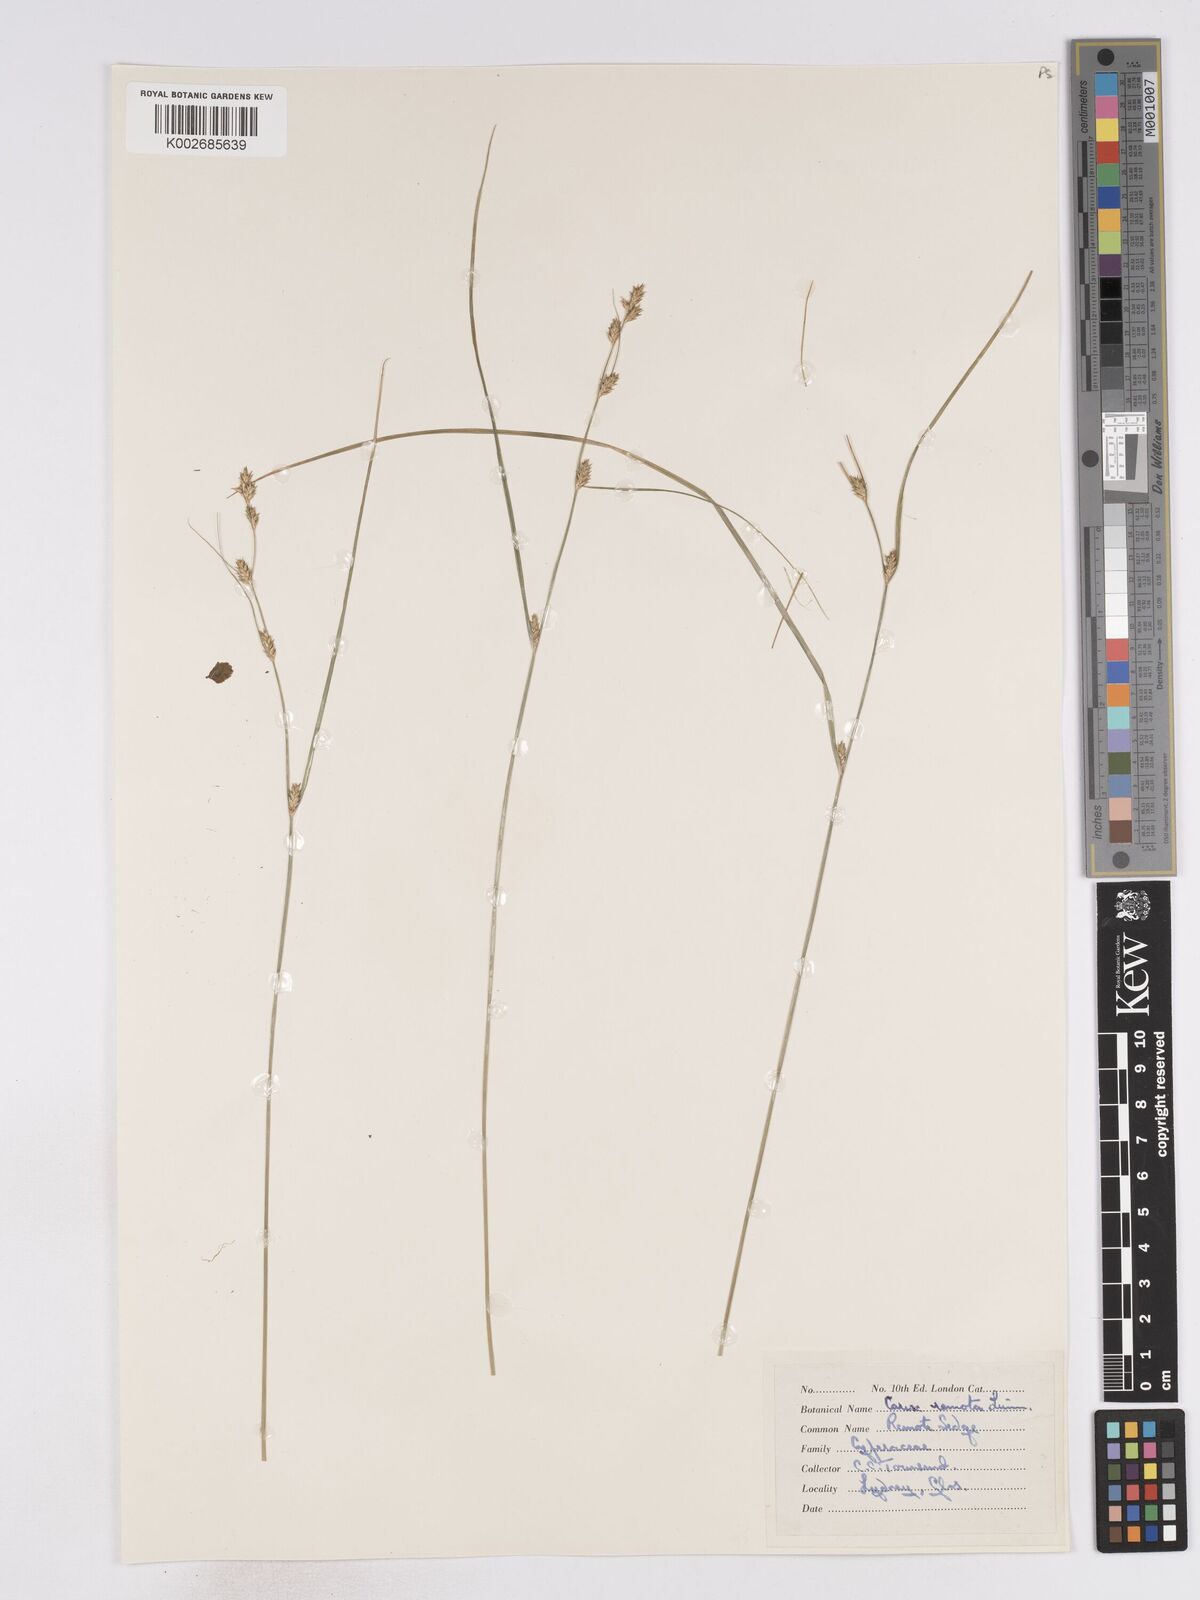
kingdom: Plantae
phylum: Tracheophyta
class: Liliopsida
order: Poales
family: Cyperaceae
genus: Carex
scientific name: Carex remota
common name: Remote sedge
